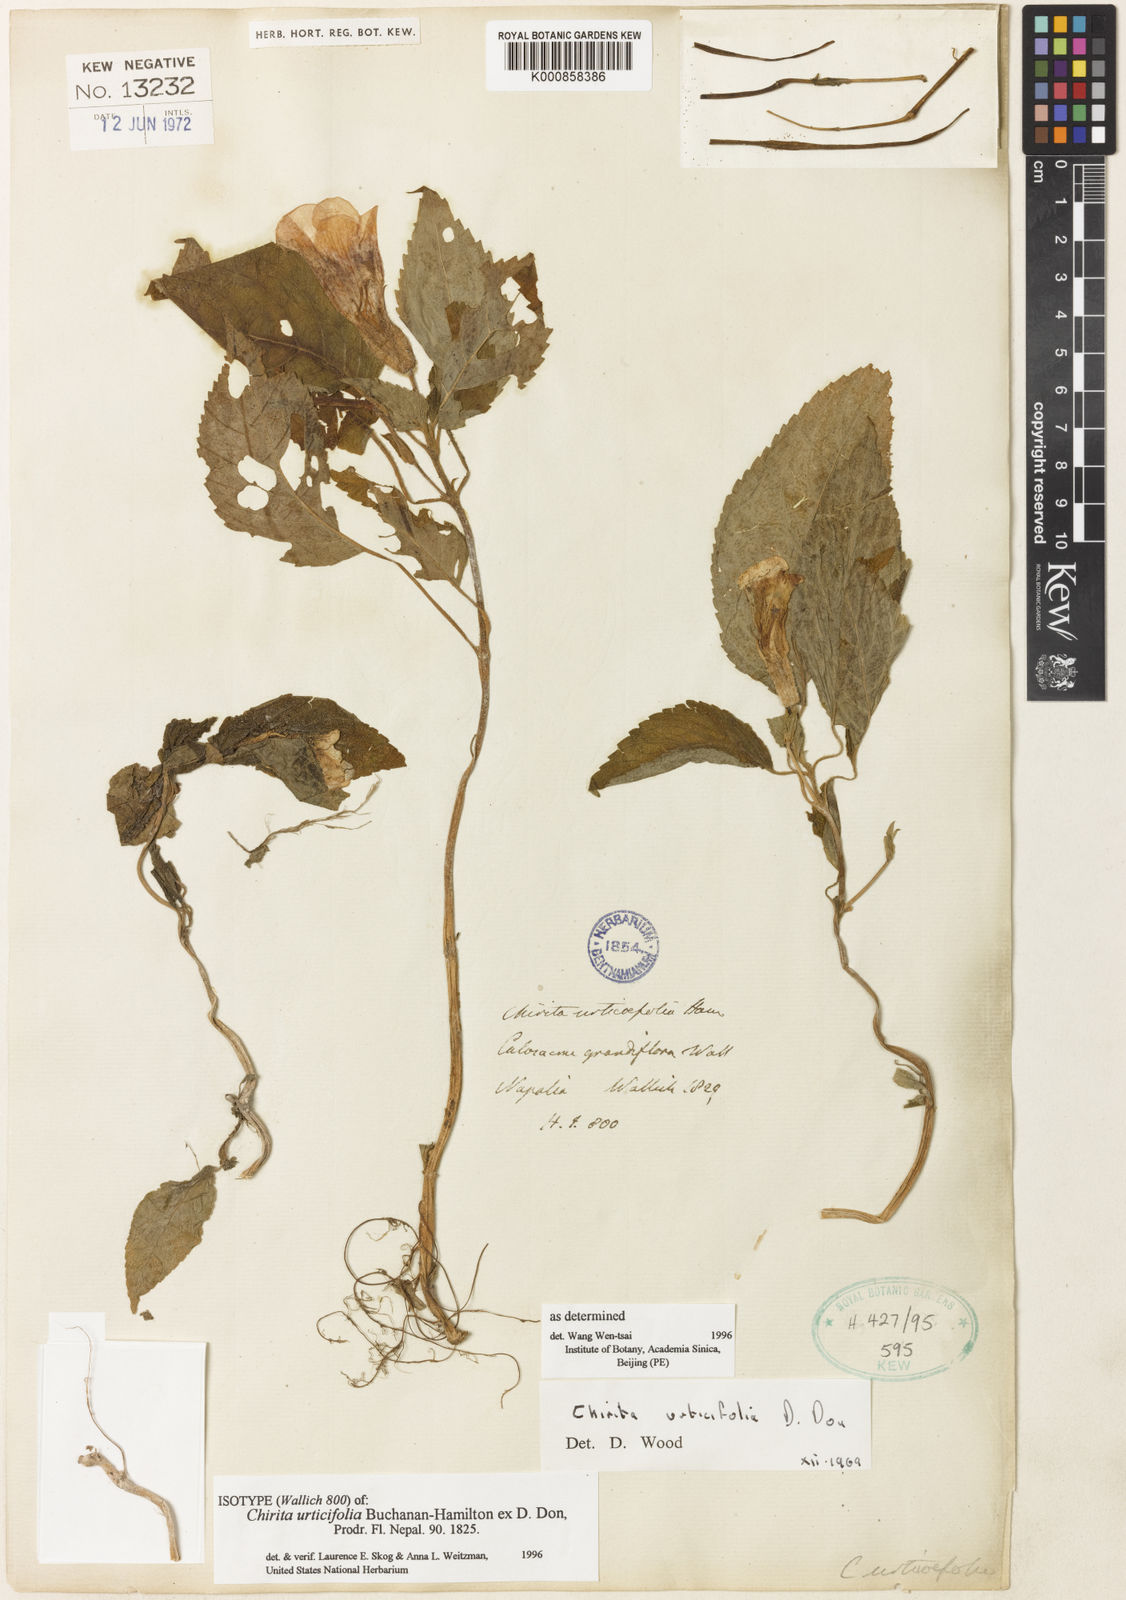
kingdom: Plantae
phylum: Tracheophyta
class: Magnoliopsida
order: Lamiales
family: Gesneriaceae
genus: Henckelia
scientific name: Henckelia urticifolia
